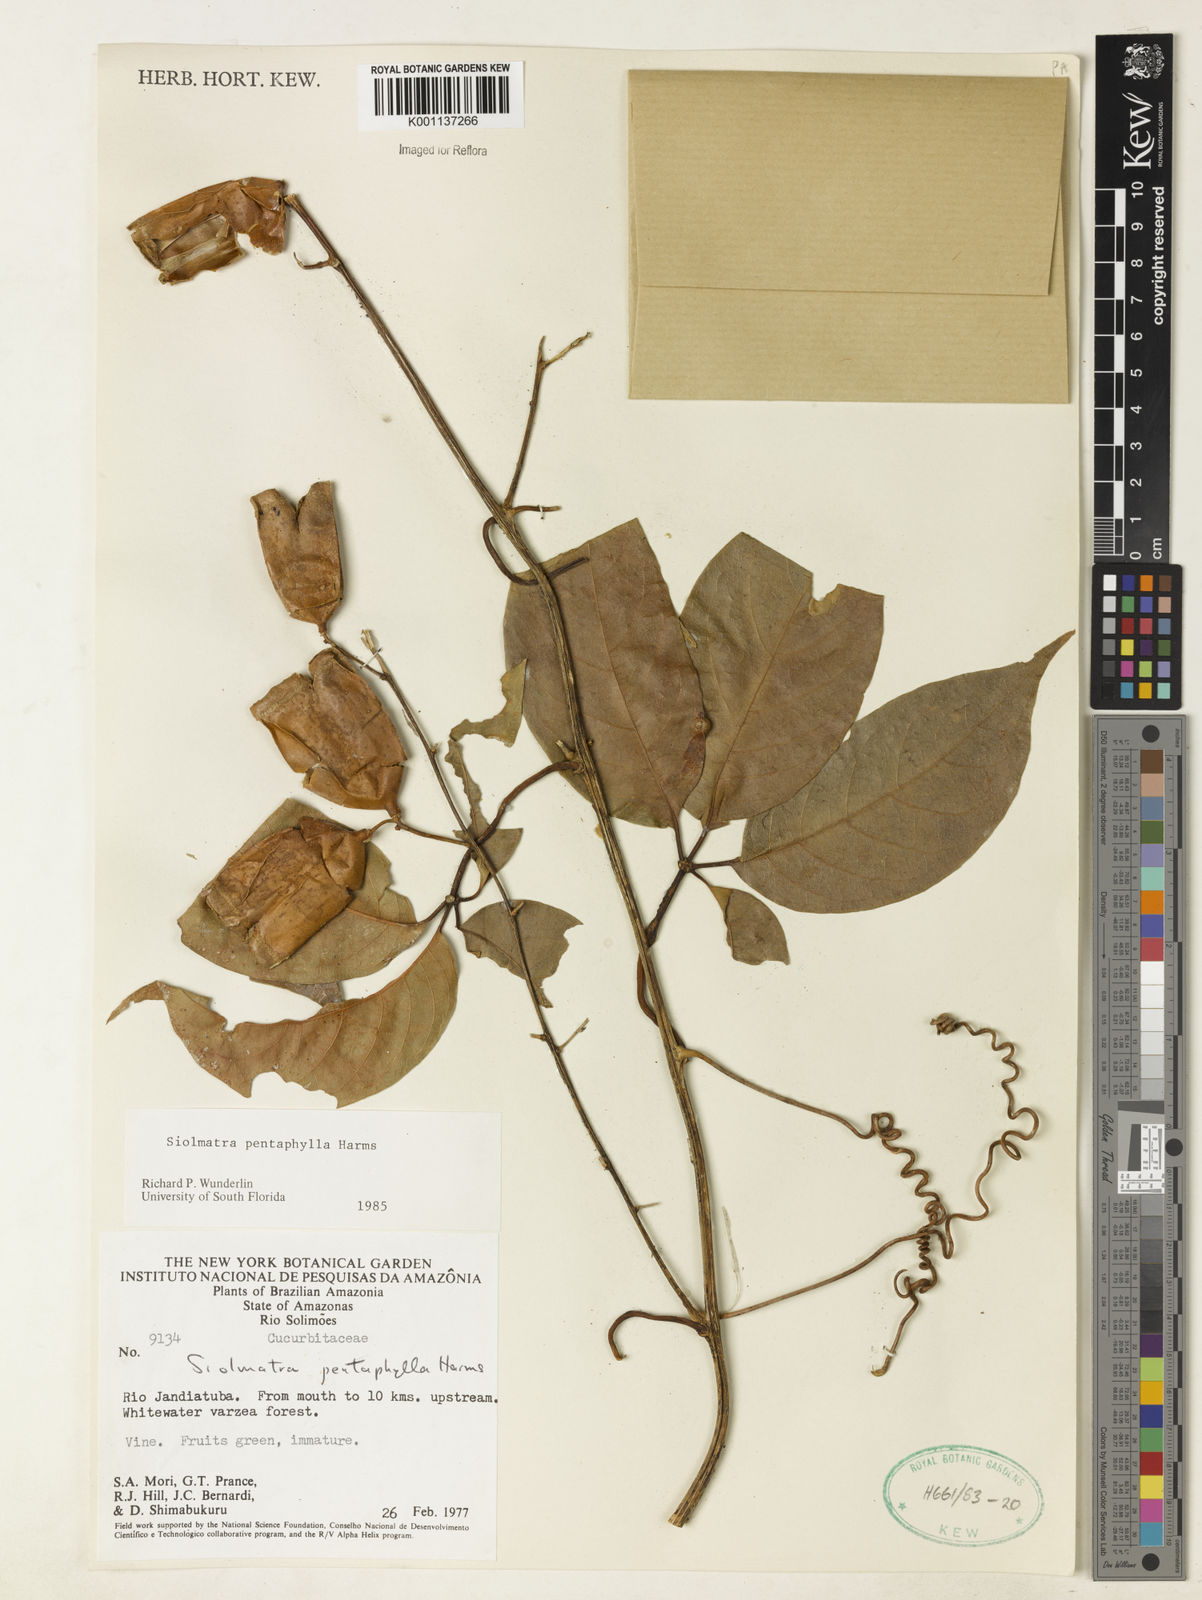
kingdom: Plantae
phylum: Tracheophyta
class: Magnoliopsida
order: Cucurbitales
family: Cucurbitaceae
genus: Siolmatra
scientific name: Siolmatra pentaphylla
